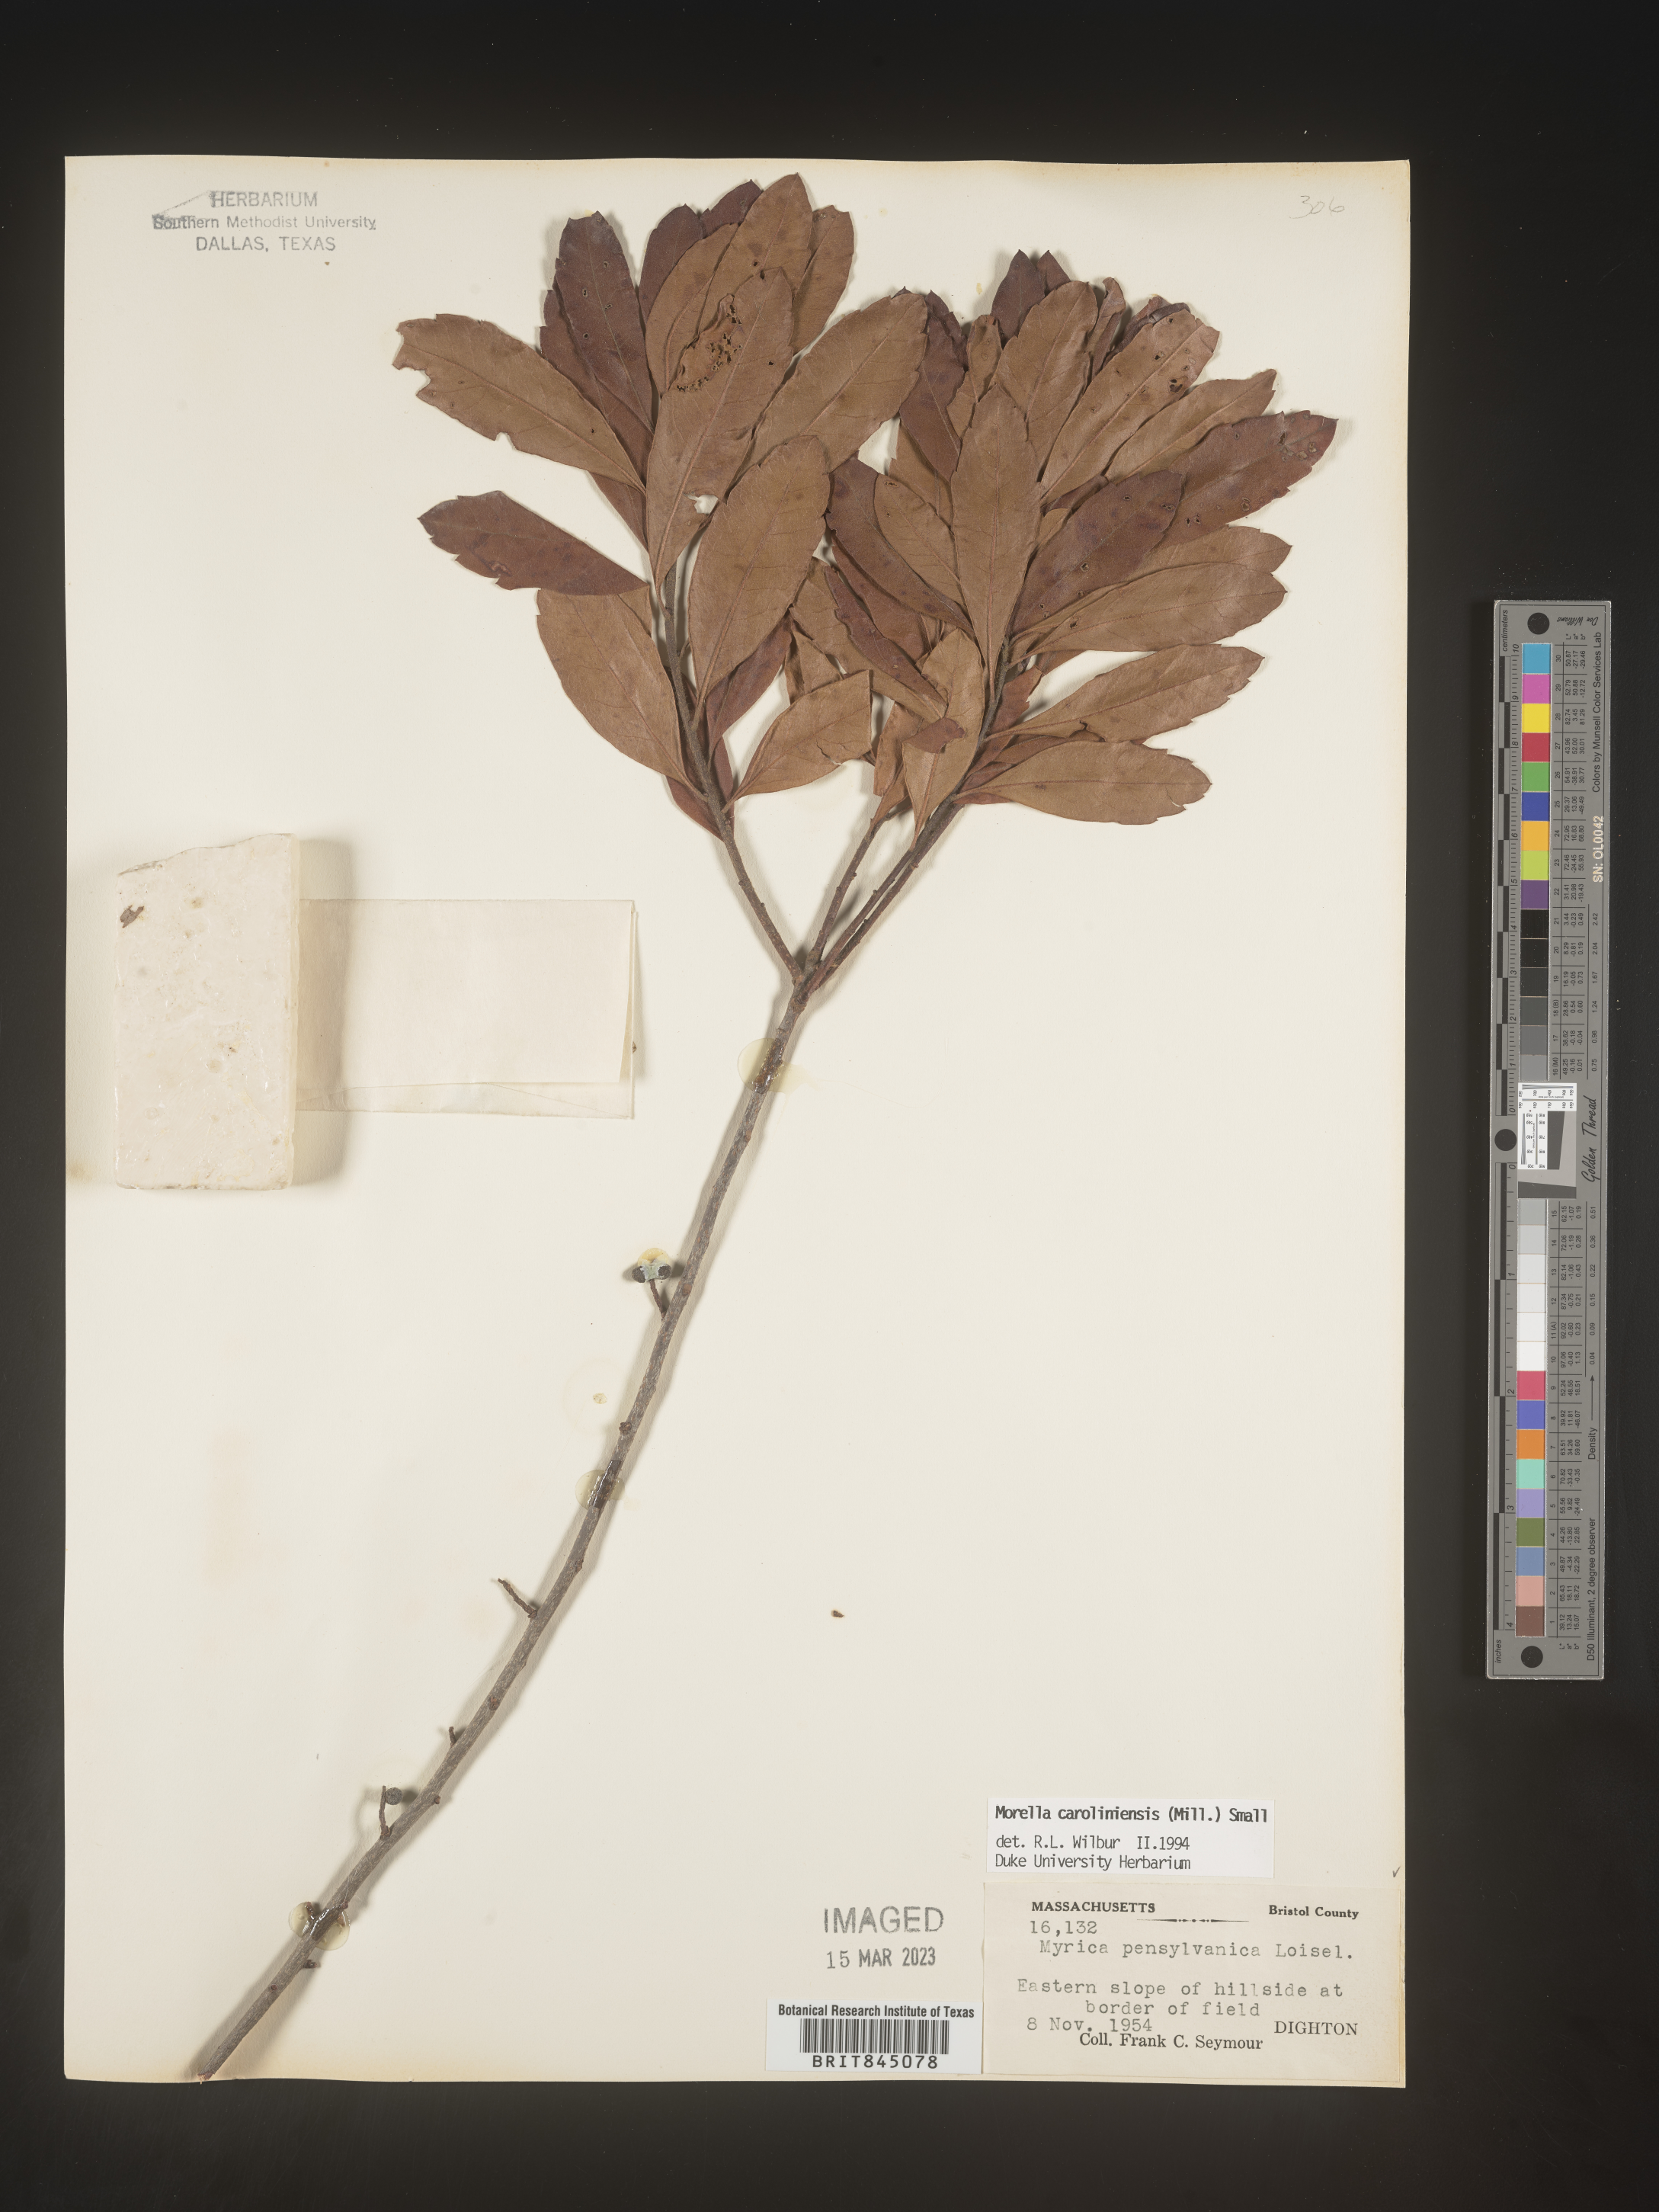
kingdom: Plantae
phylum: Tracheophyta
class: Magnoliopsida
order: Fagales
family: Myricaceae
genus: Morella
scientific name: Morella caroliniensis
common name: Evergreen bayberry
